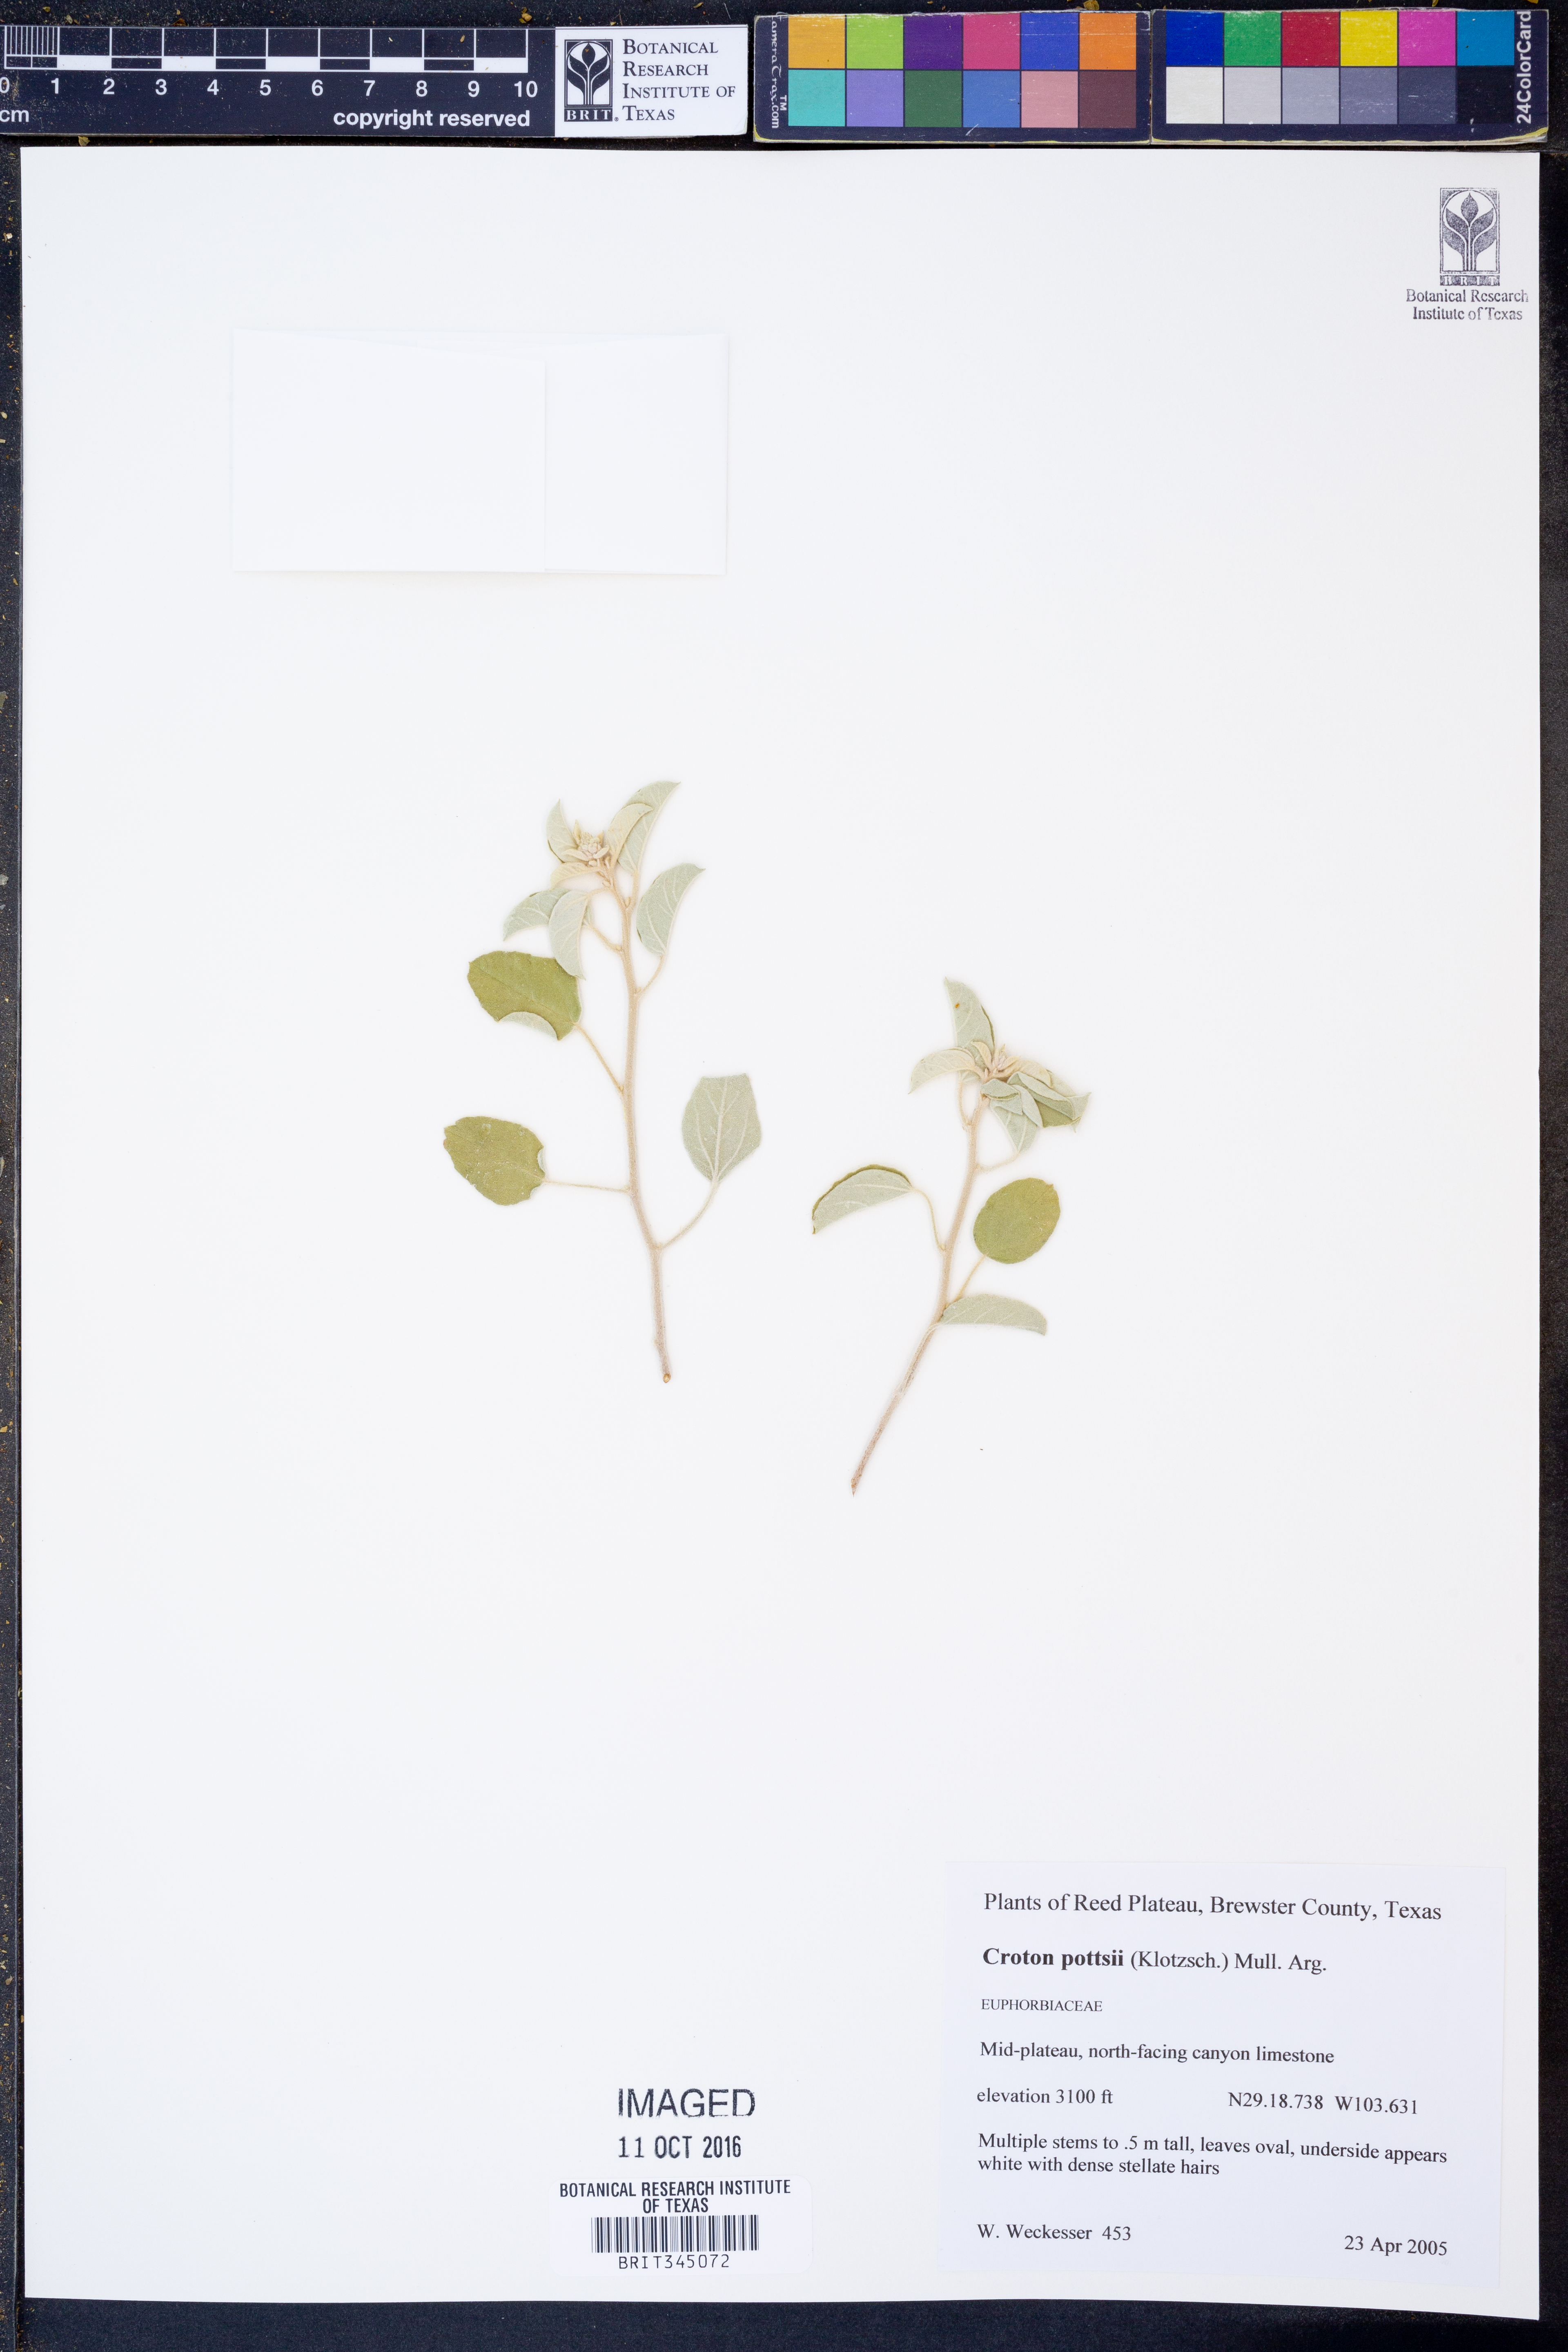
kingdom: Plantae
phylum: Tracheophyta
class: Magnoliopsida
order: Malpighiales
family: Euphorbiaceae
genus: Croton
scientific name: Croton pottsii
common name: Leatherweed
